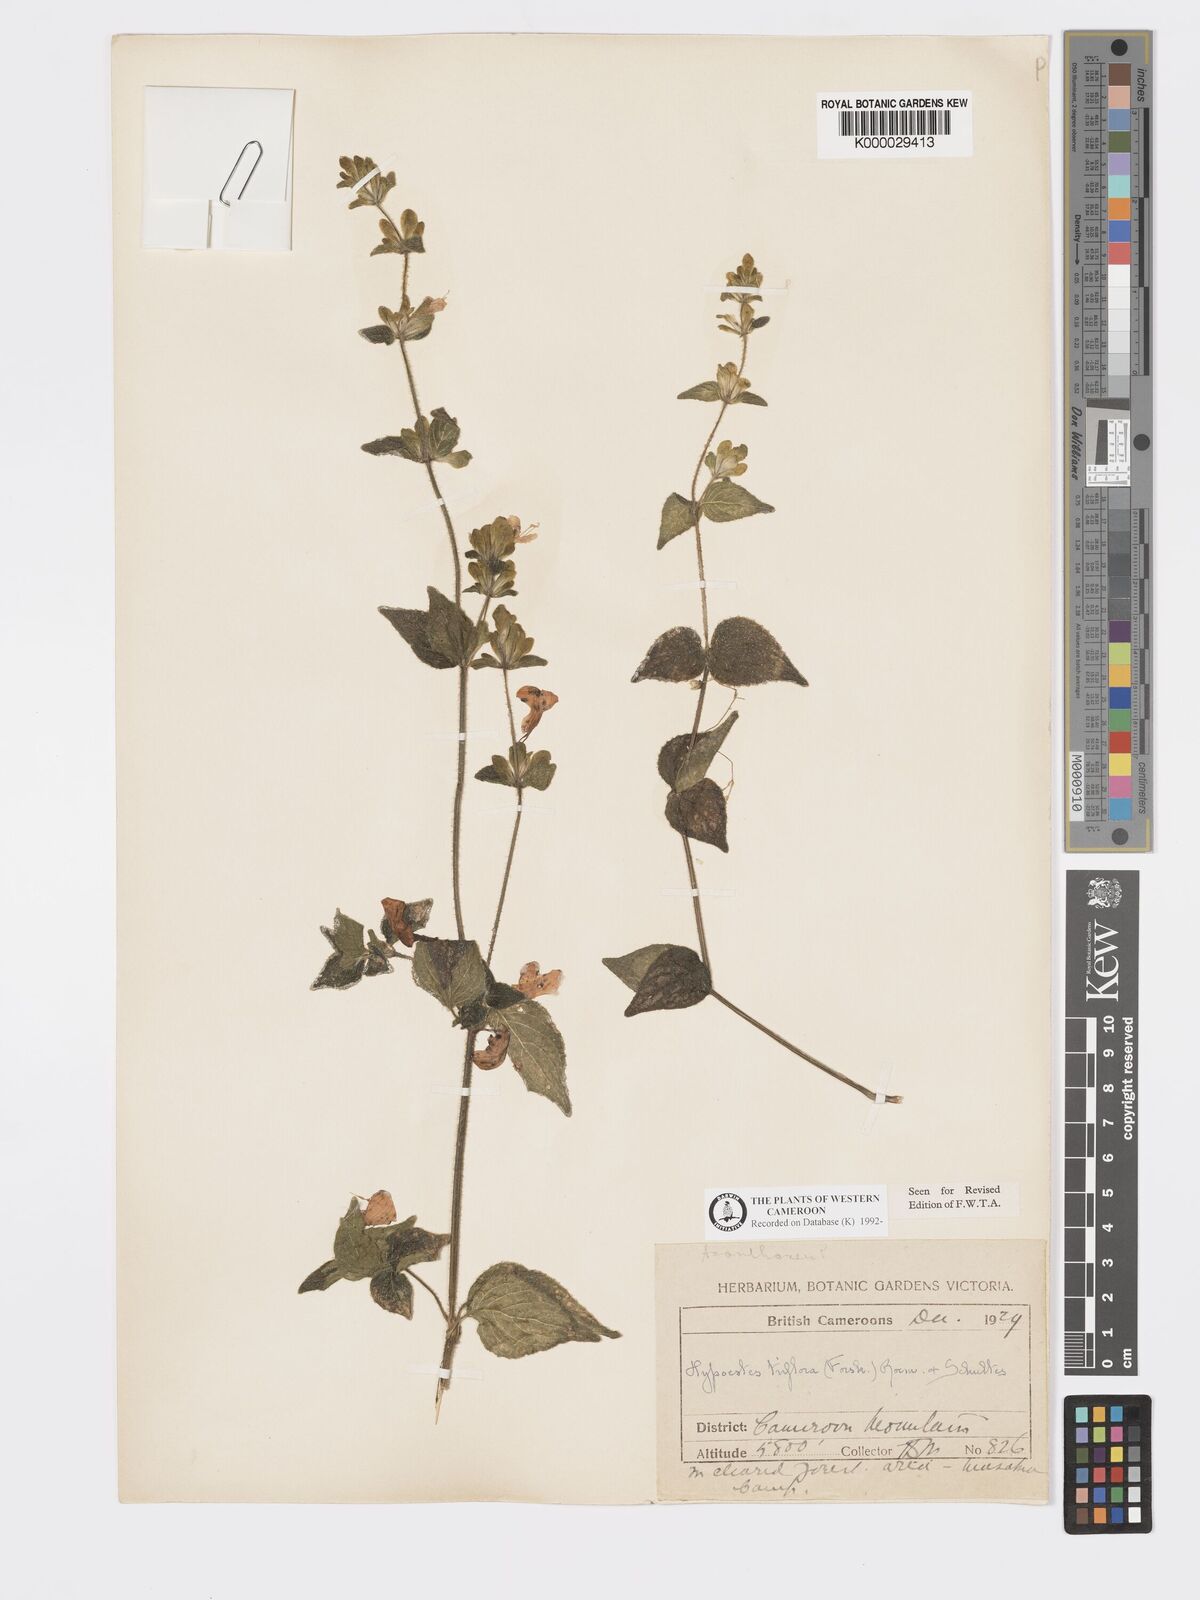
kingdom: Plantae
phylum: Tracheophyta
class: Magnoliopsida
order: Lamiales
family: Acanthaceae
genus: Hypoestes
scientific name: Hypoestes triflora
